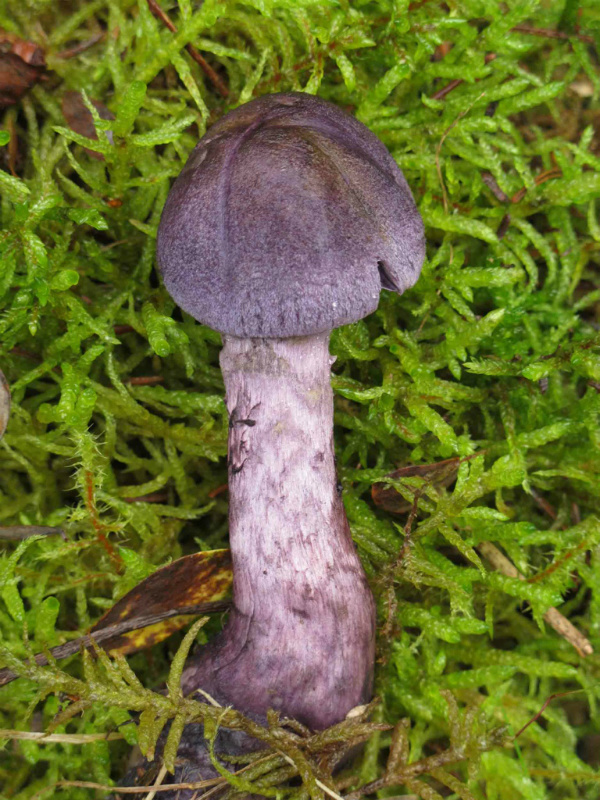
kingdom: Fungi
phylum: Basidiomycota
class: Agaricomycetes
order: Agaricales
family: Cortinariaceae
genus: Cortinarius
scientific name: Cortinarius violaceus
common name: mørkviolet slørhat
